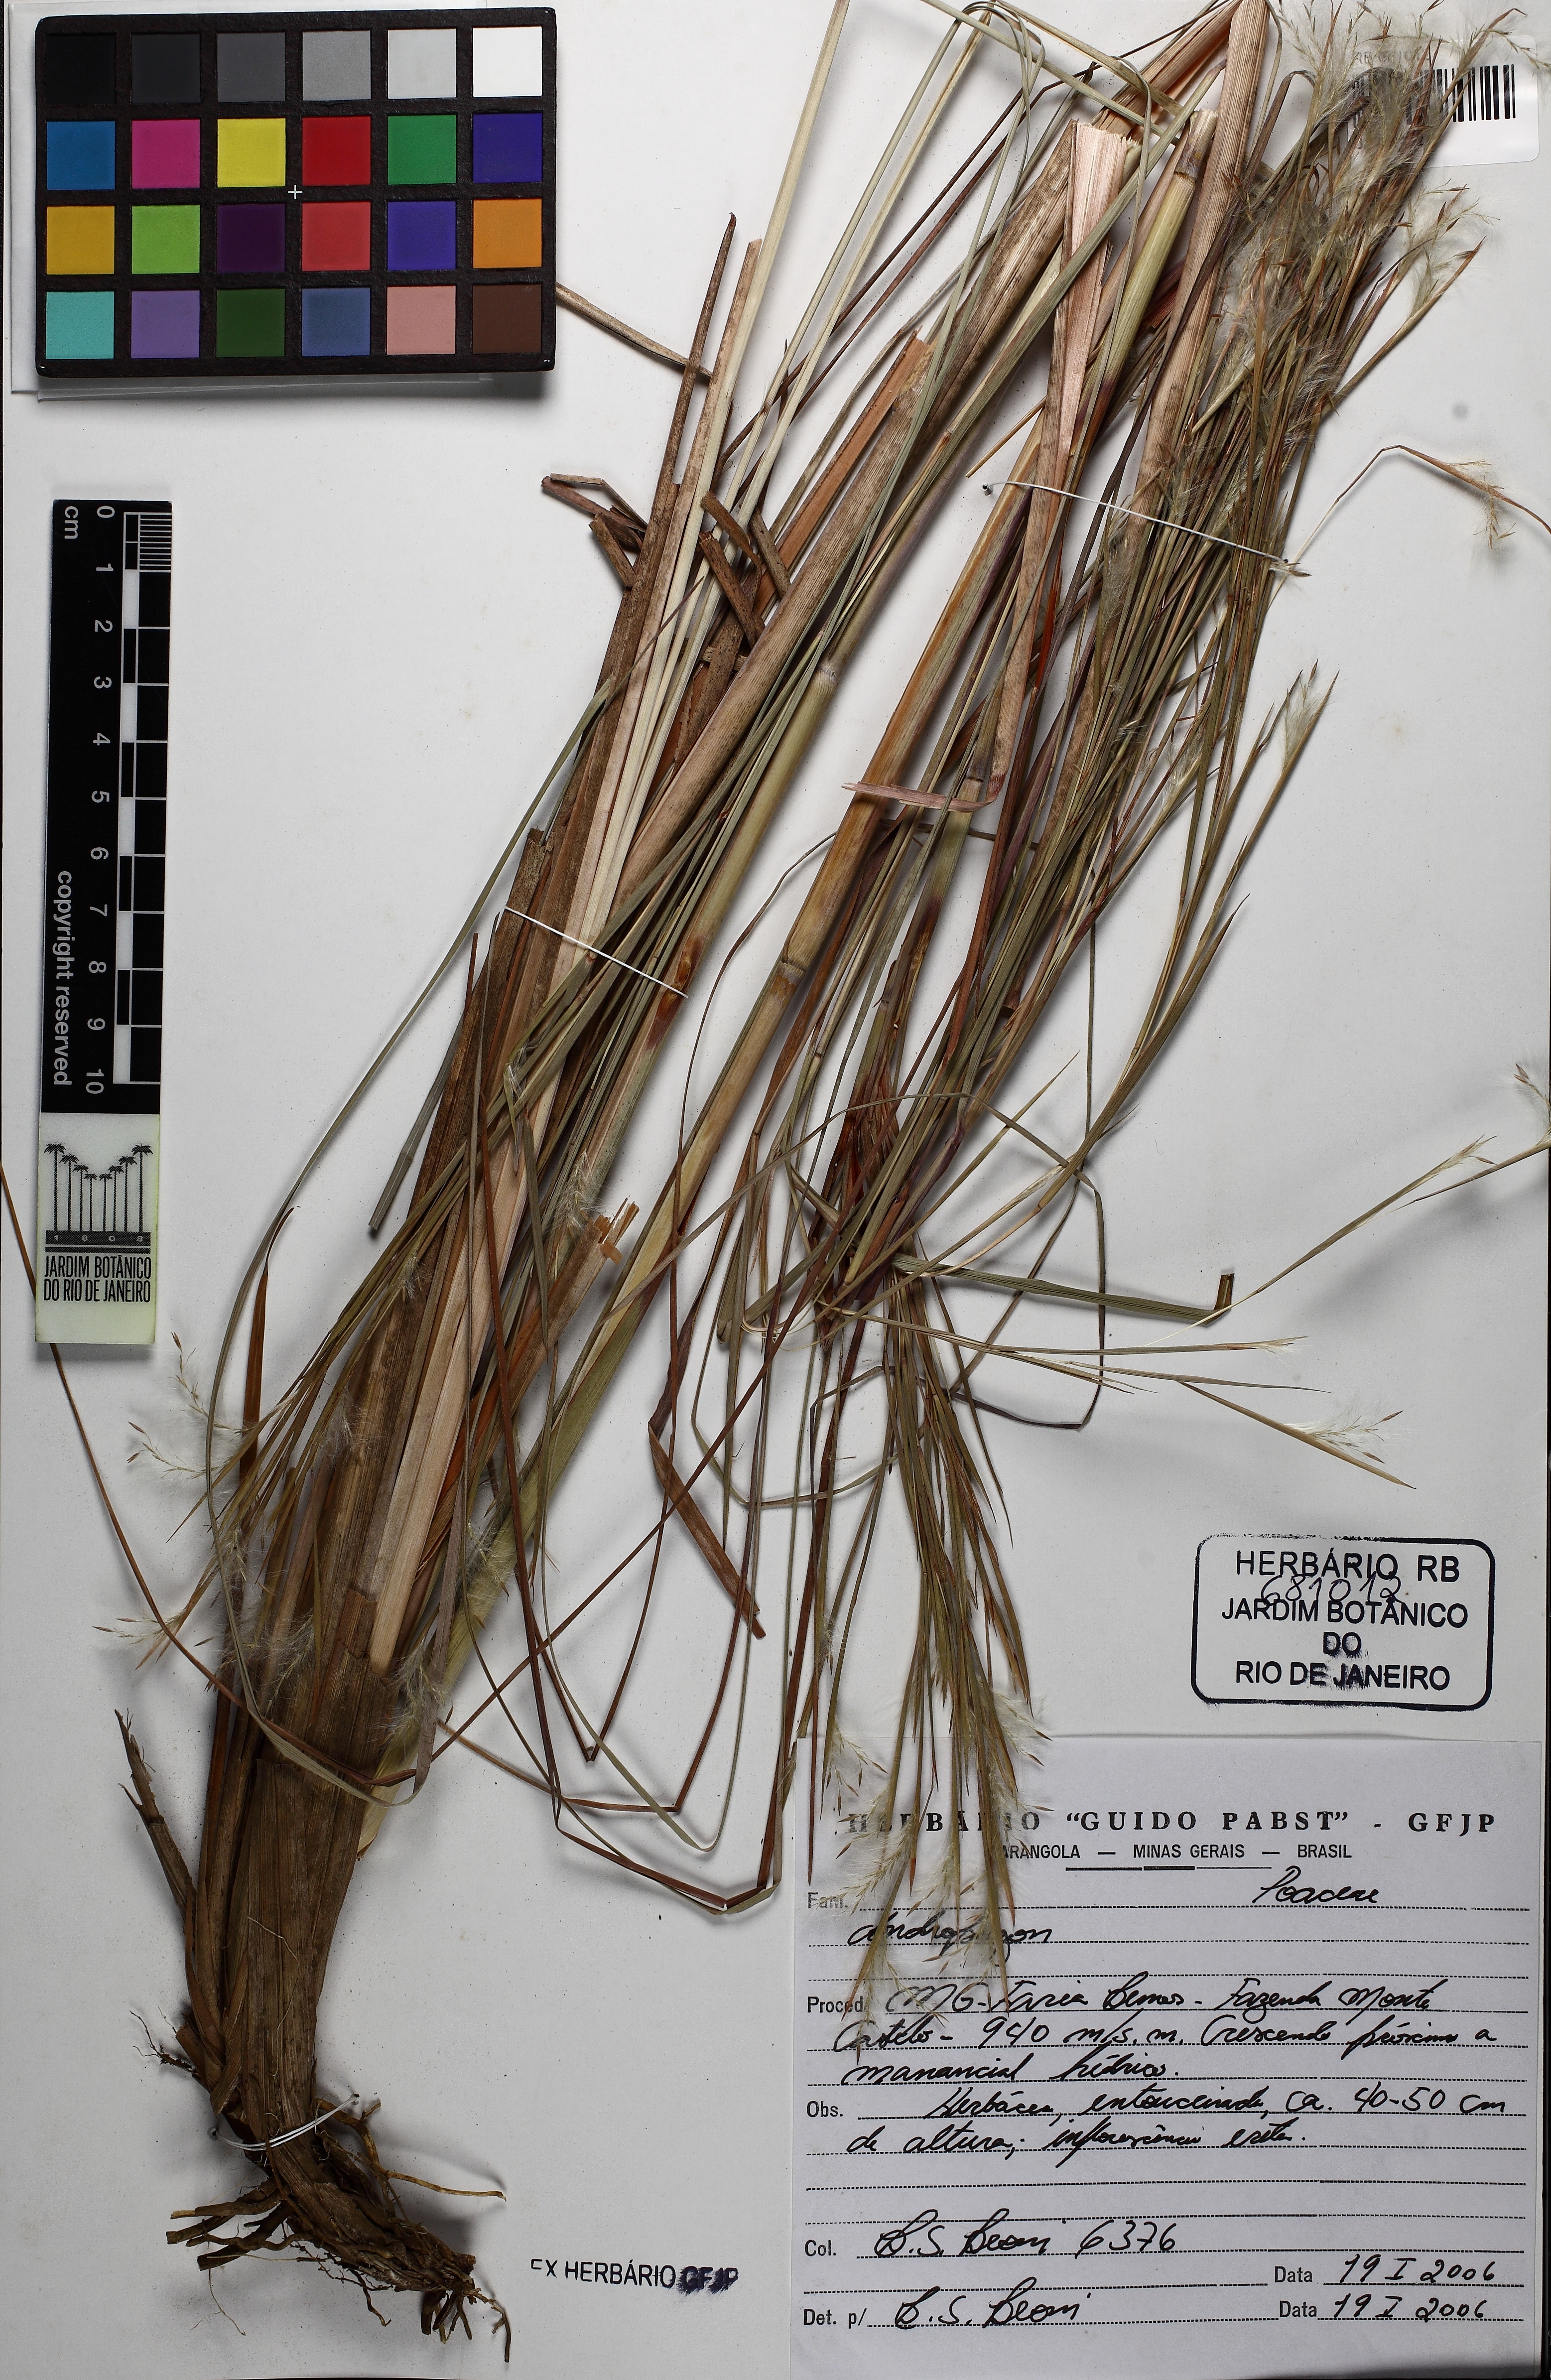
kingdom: Plantae
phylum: Tracheophyta
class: Liliopsida
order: Poales
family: Poaceae
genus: Andropogon
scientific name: Andropogon
